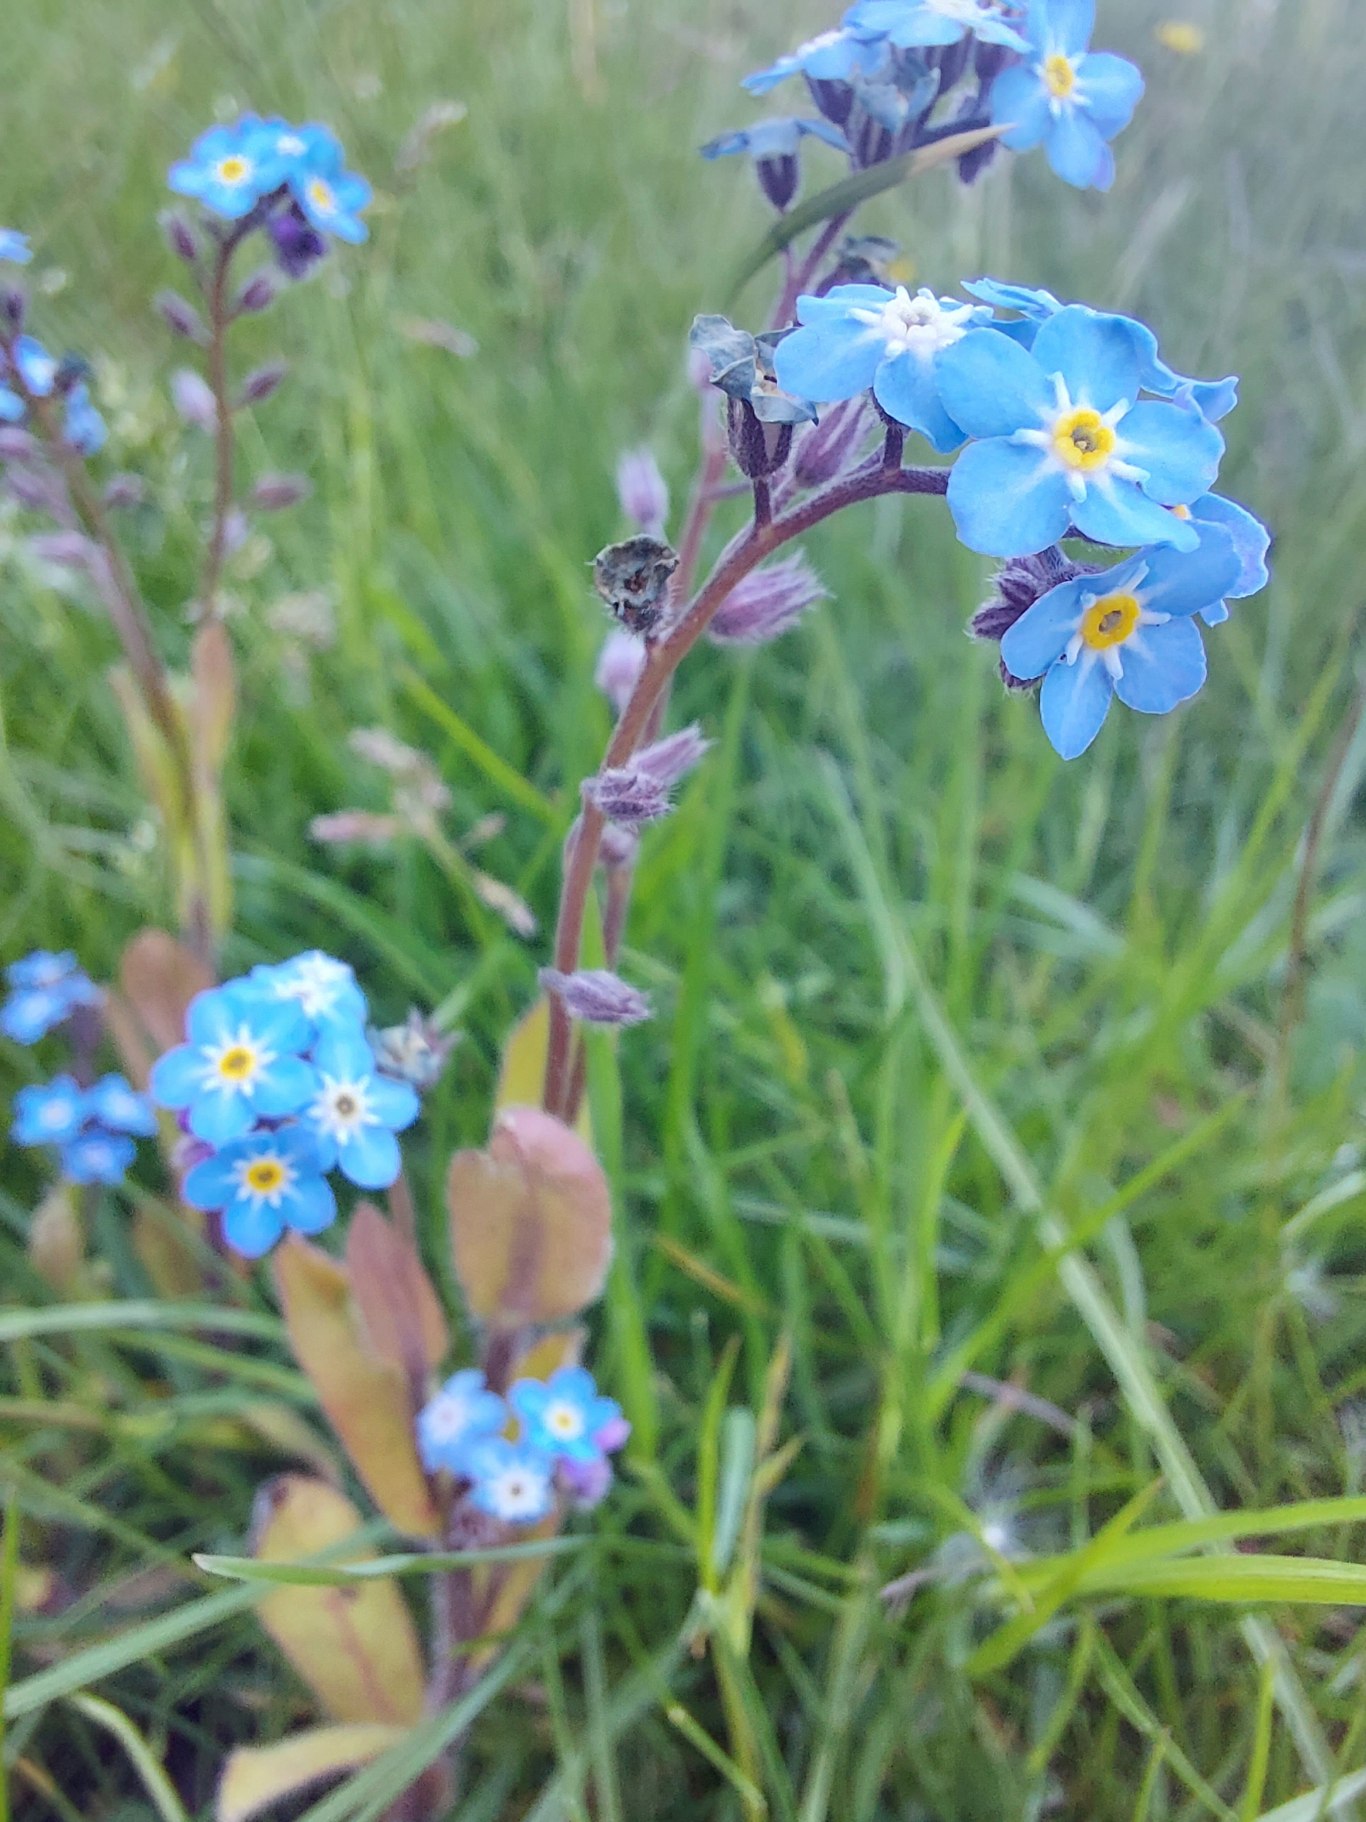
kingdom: Plantae
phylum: Tracheophyta
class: Magnoliopsida
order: Boraginales
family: Boraginaceae
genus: Myosotis
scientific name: Myosotis sylvatica
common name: Skov-forglemmigej
